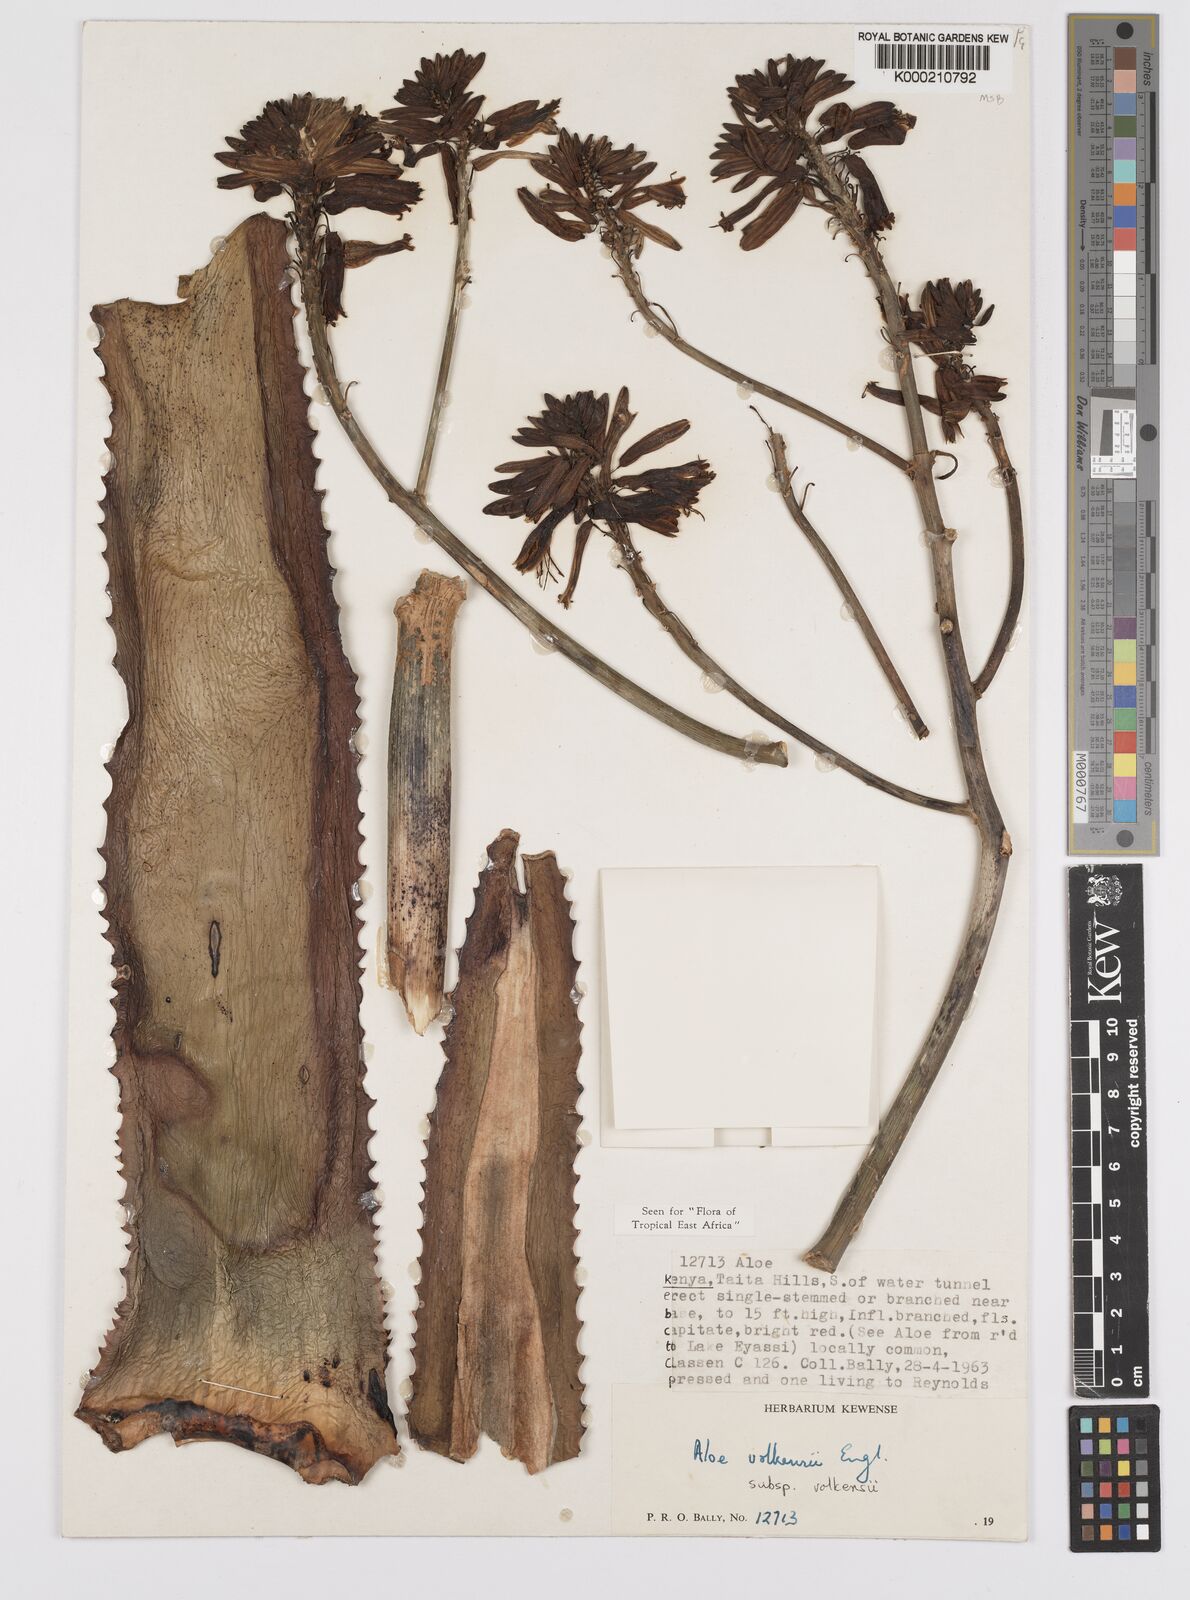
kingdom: Plantae
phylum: Tracheophyta
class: Liliopsida
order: Asparagales
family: Asphodelaceae
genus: Aloe
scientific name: Aloe volkensii
